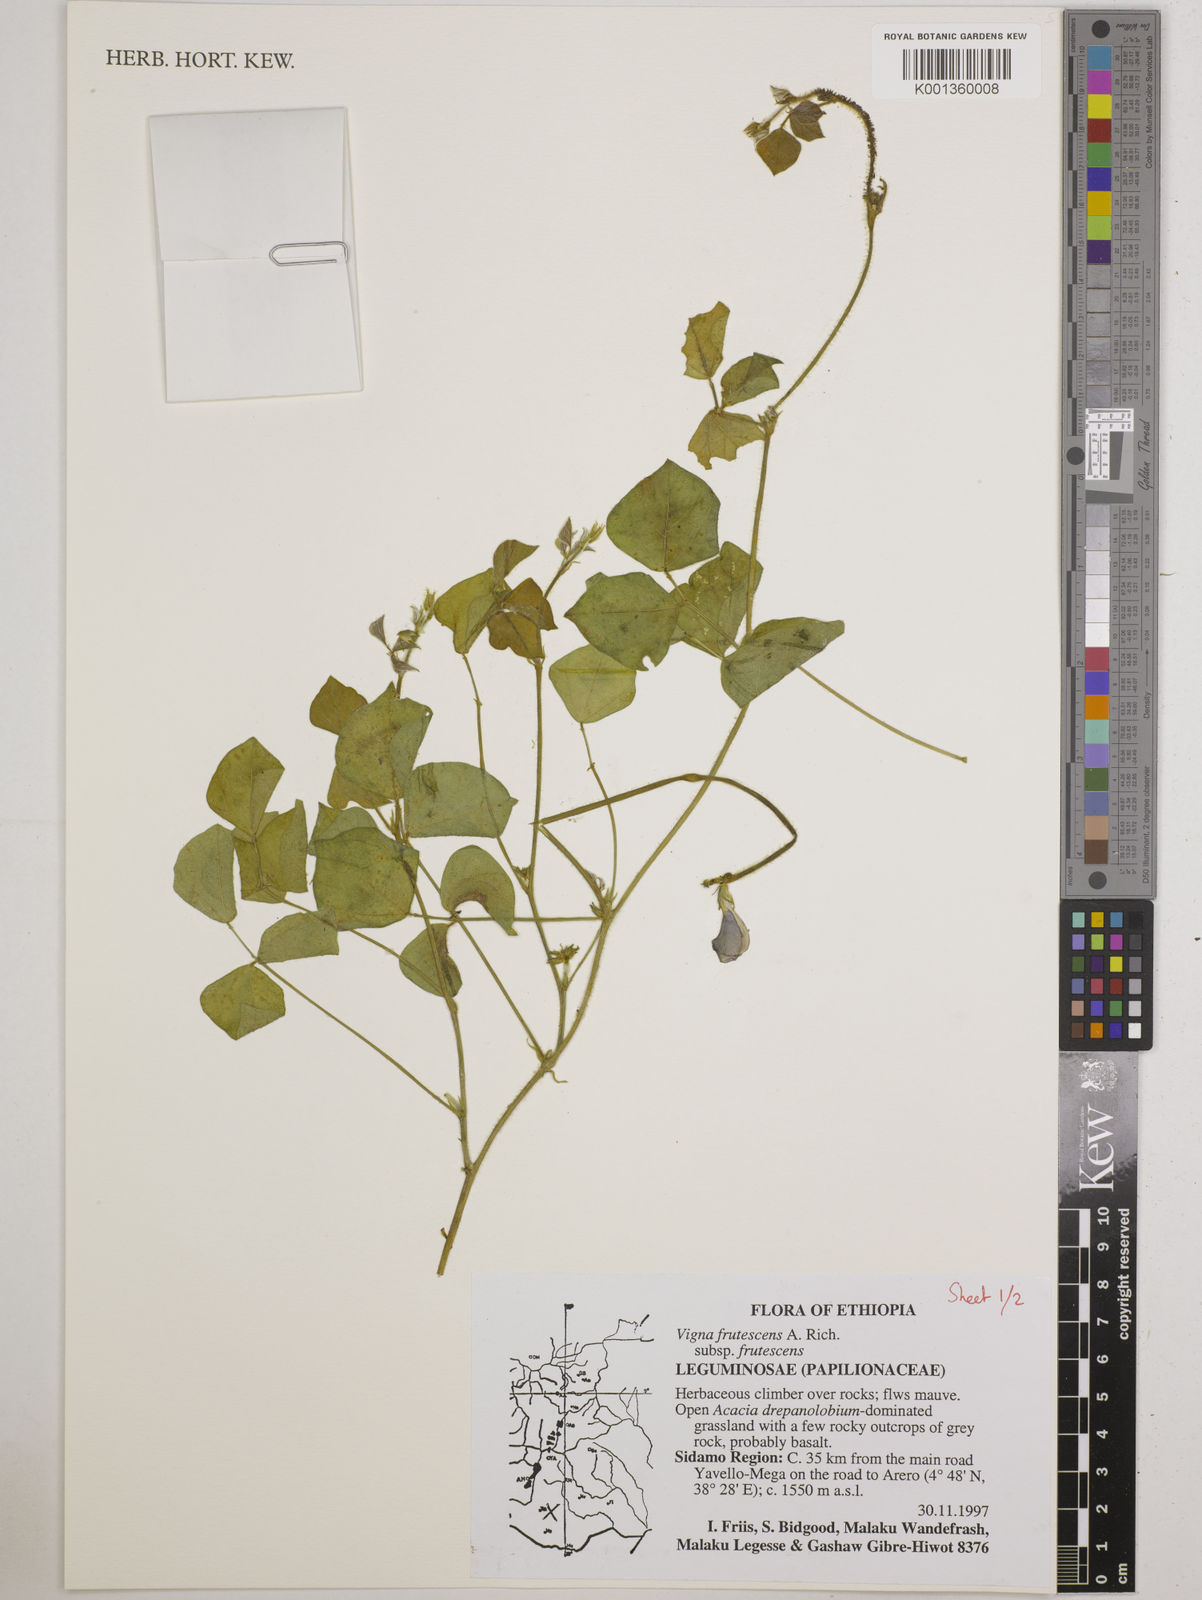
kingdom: Plantae
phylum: Tracheophyta
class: Magnoliopsida
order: Fabales
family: Fabaceae
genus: Vigna
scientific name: Vigna frutescens
